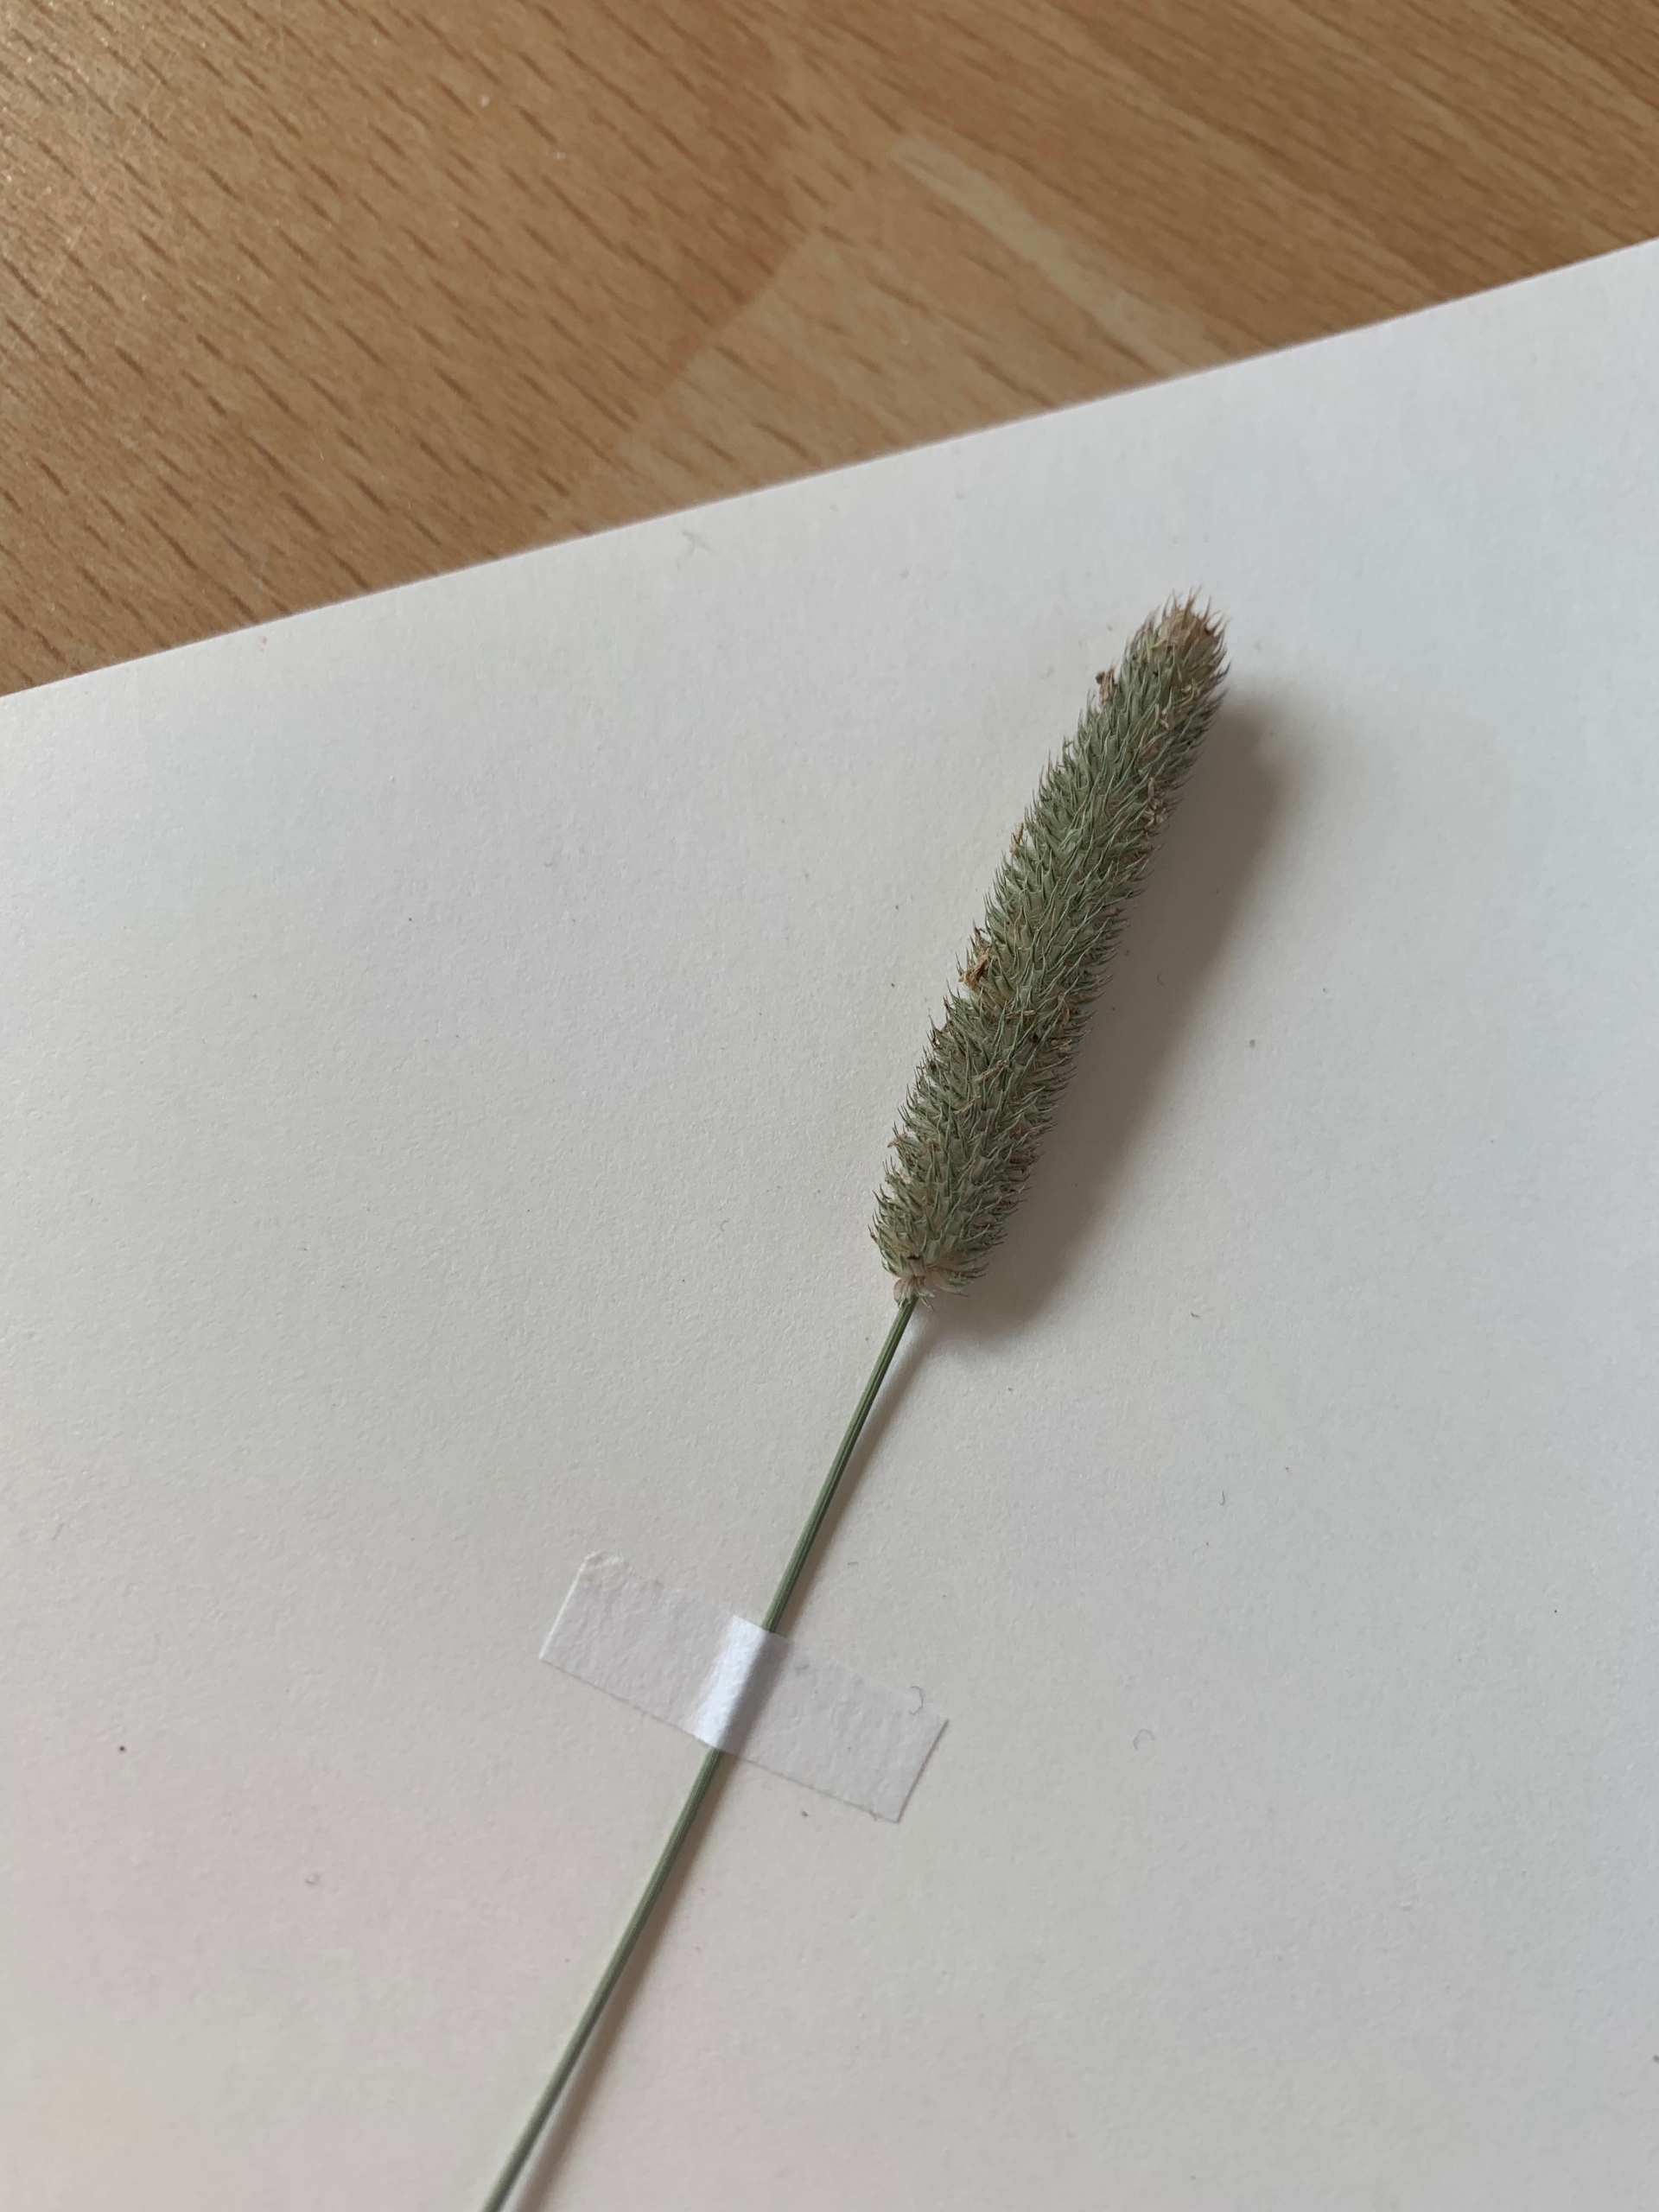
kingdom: Plantae
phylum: Tracheophyta
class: Liliopsida
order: Poales
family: Poaceae
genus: Phleum
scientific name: Phleum pratense
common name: Eng-rottehale
